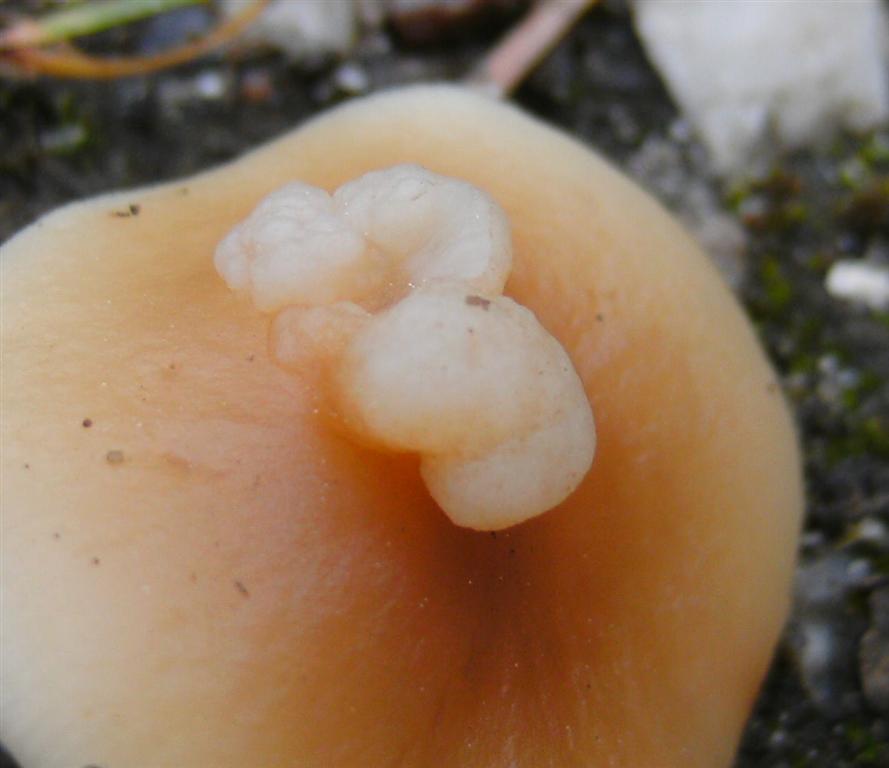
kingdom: Fungi
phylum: Basidiomycota
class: Tremellomycetes
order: Filobasidiales
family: Filobasidiaceae
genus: Syzygospora
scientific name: Syzygospora tumefaciens
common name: fladhatte-snyltehjerne
